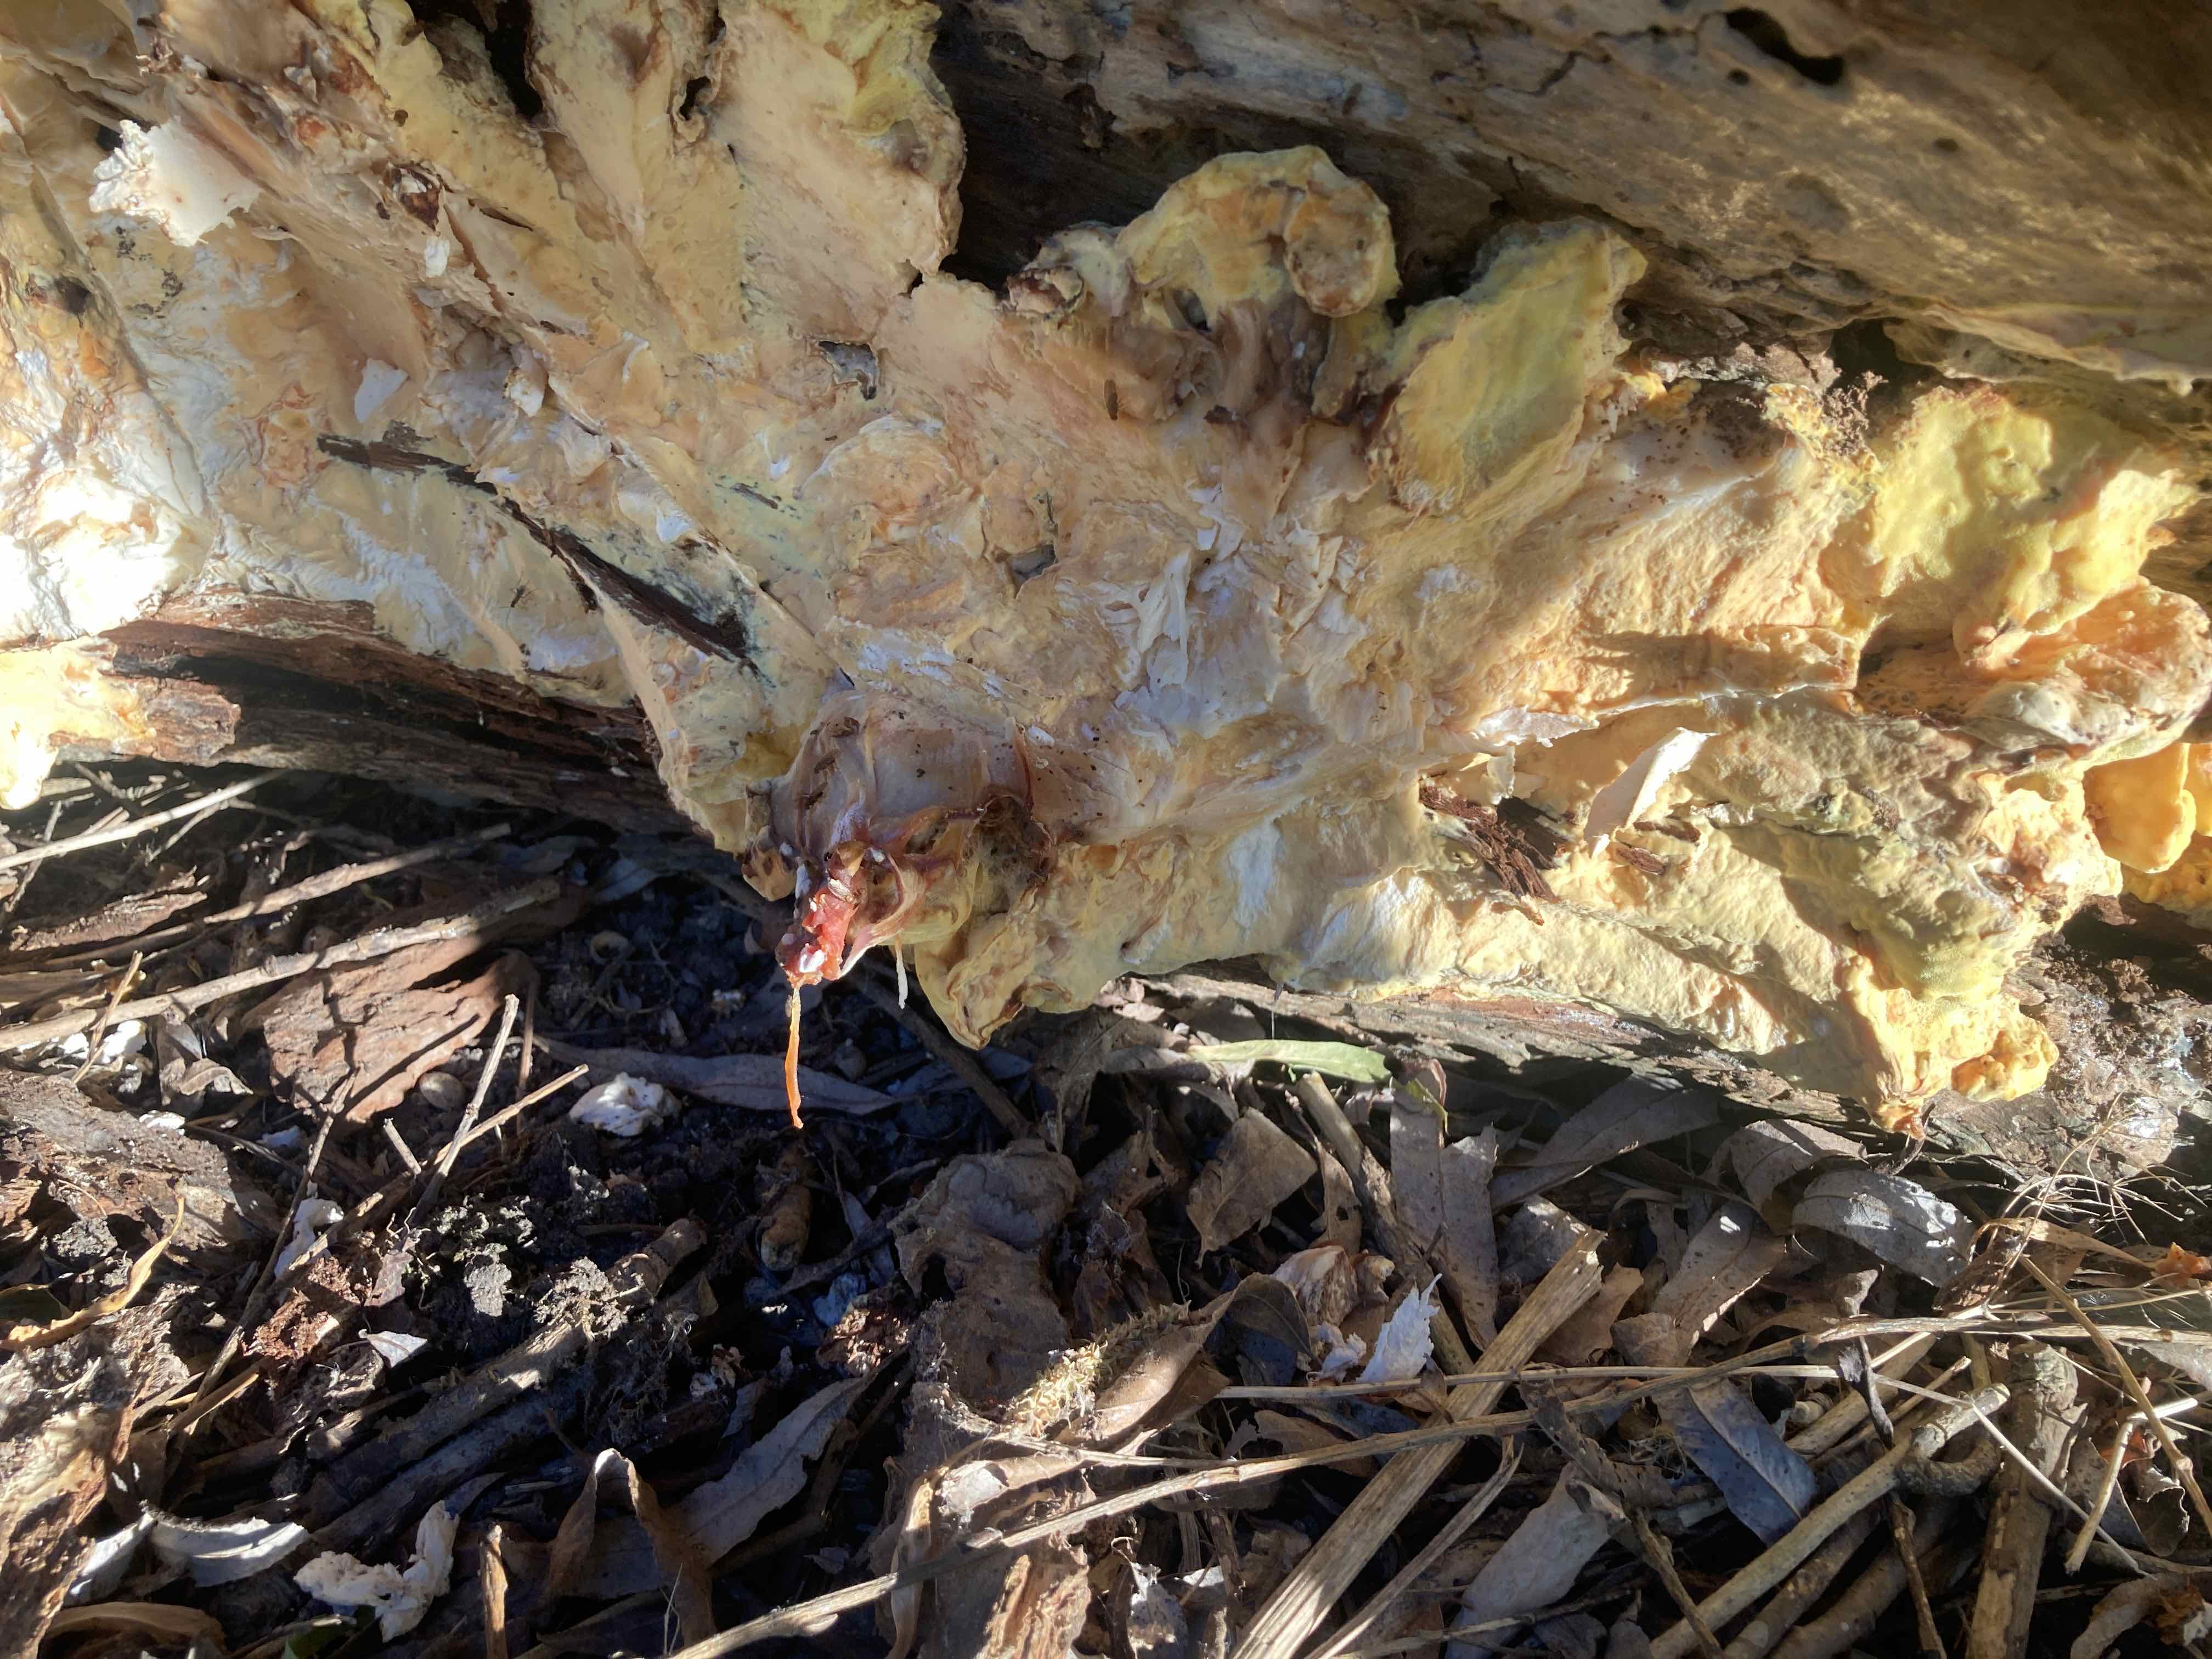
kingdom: Fungi
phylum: Basidiomycota
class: Agaricomycetes
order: Polyporales
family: Laetiporaceae
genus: Laetiporus
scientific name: Laetiporus sulphureus
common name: svovlporesvamp
